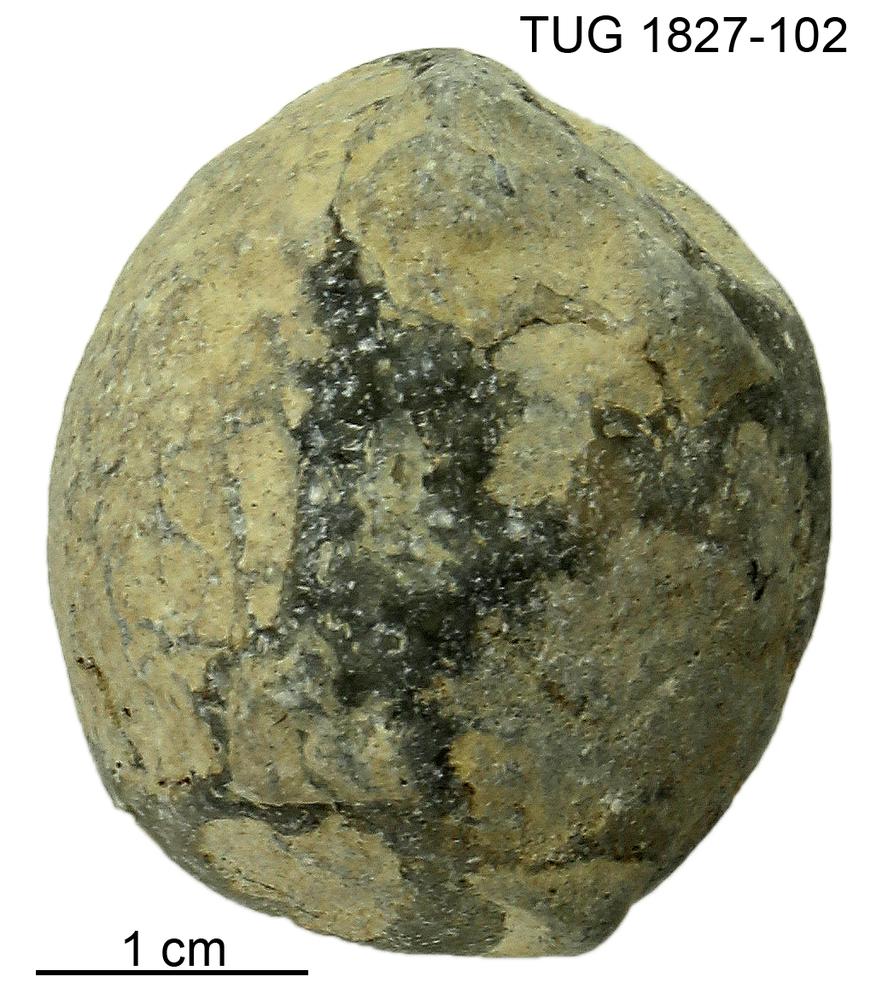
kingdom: Animalia
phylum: Echinodermata
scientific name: Echinodermata
